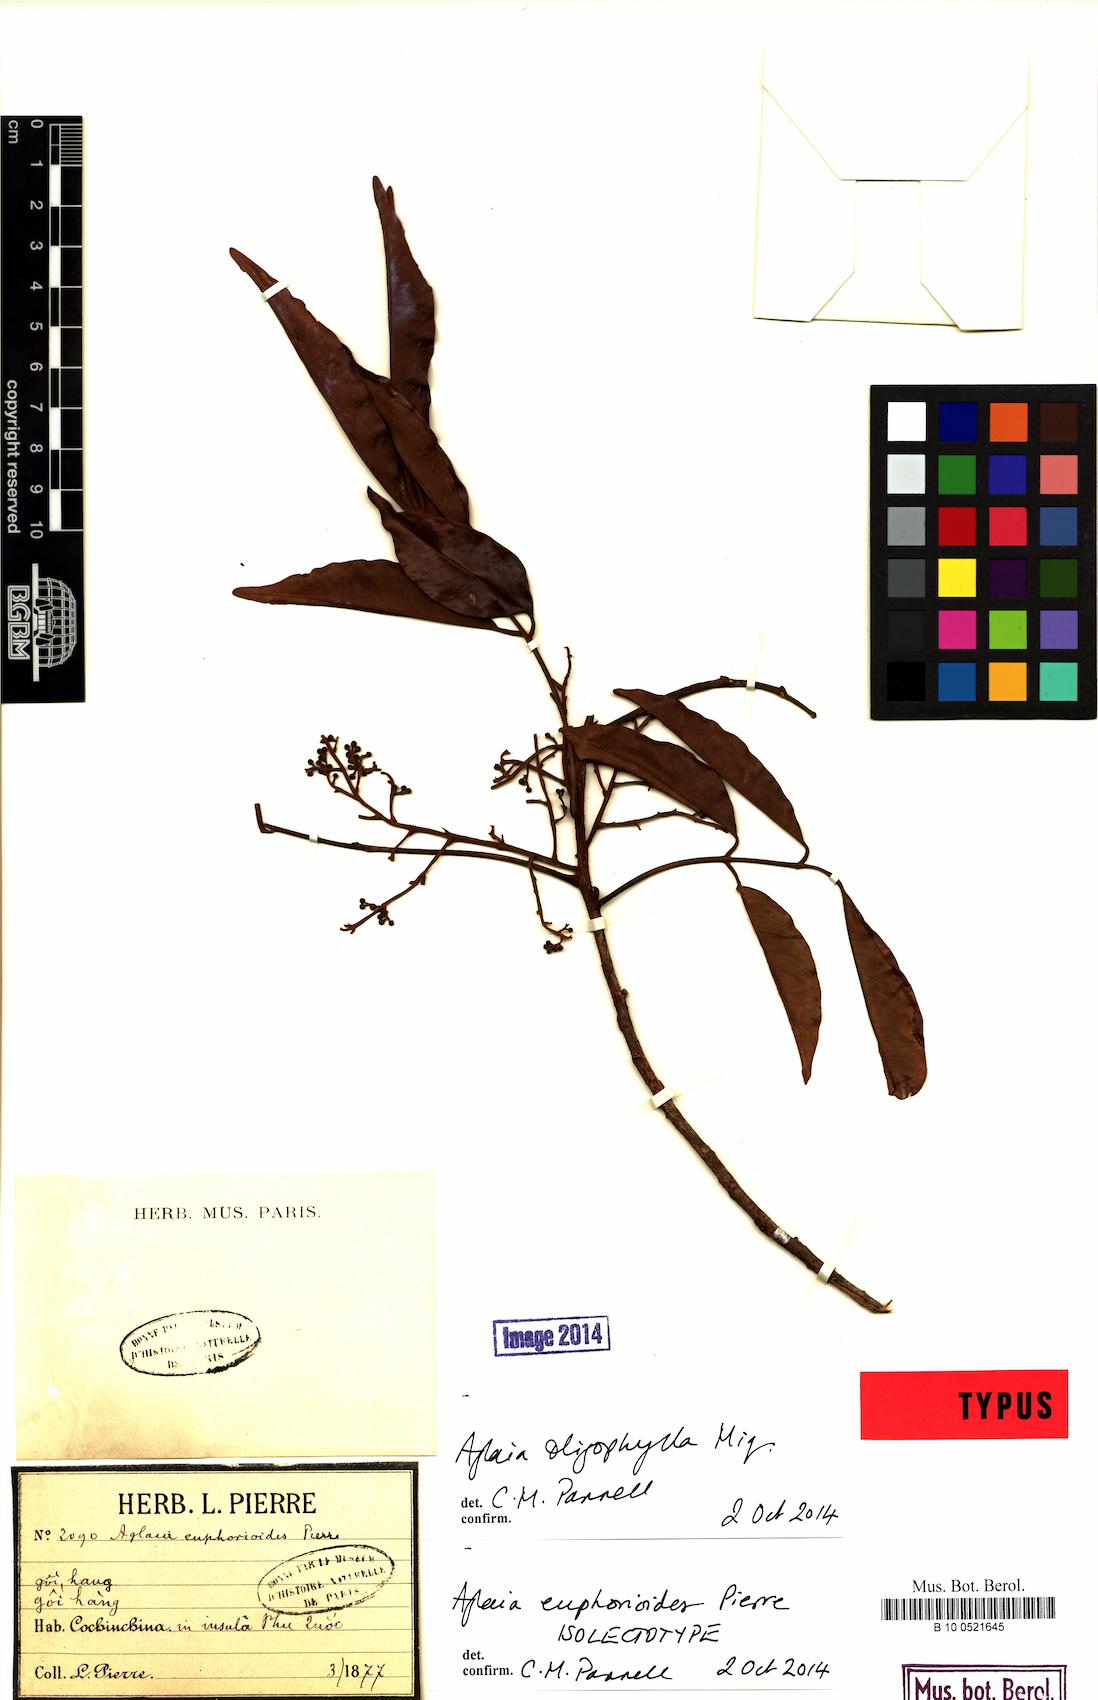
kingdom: Plantae
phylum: Tracheophyta
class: Magnoliopsida
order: Sapindales
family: Meliaceae
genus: Aglaia
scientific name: Aglaia oligophylla
